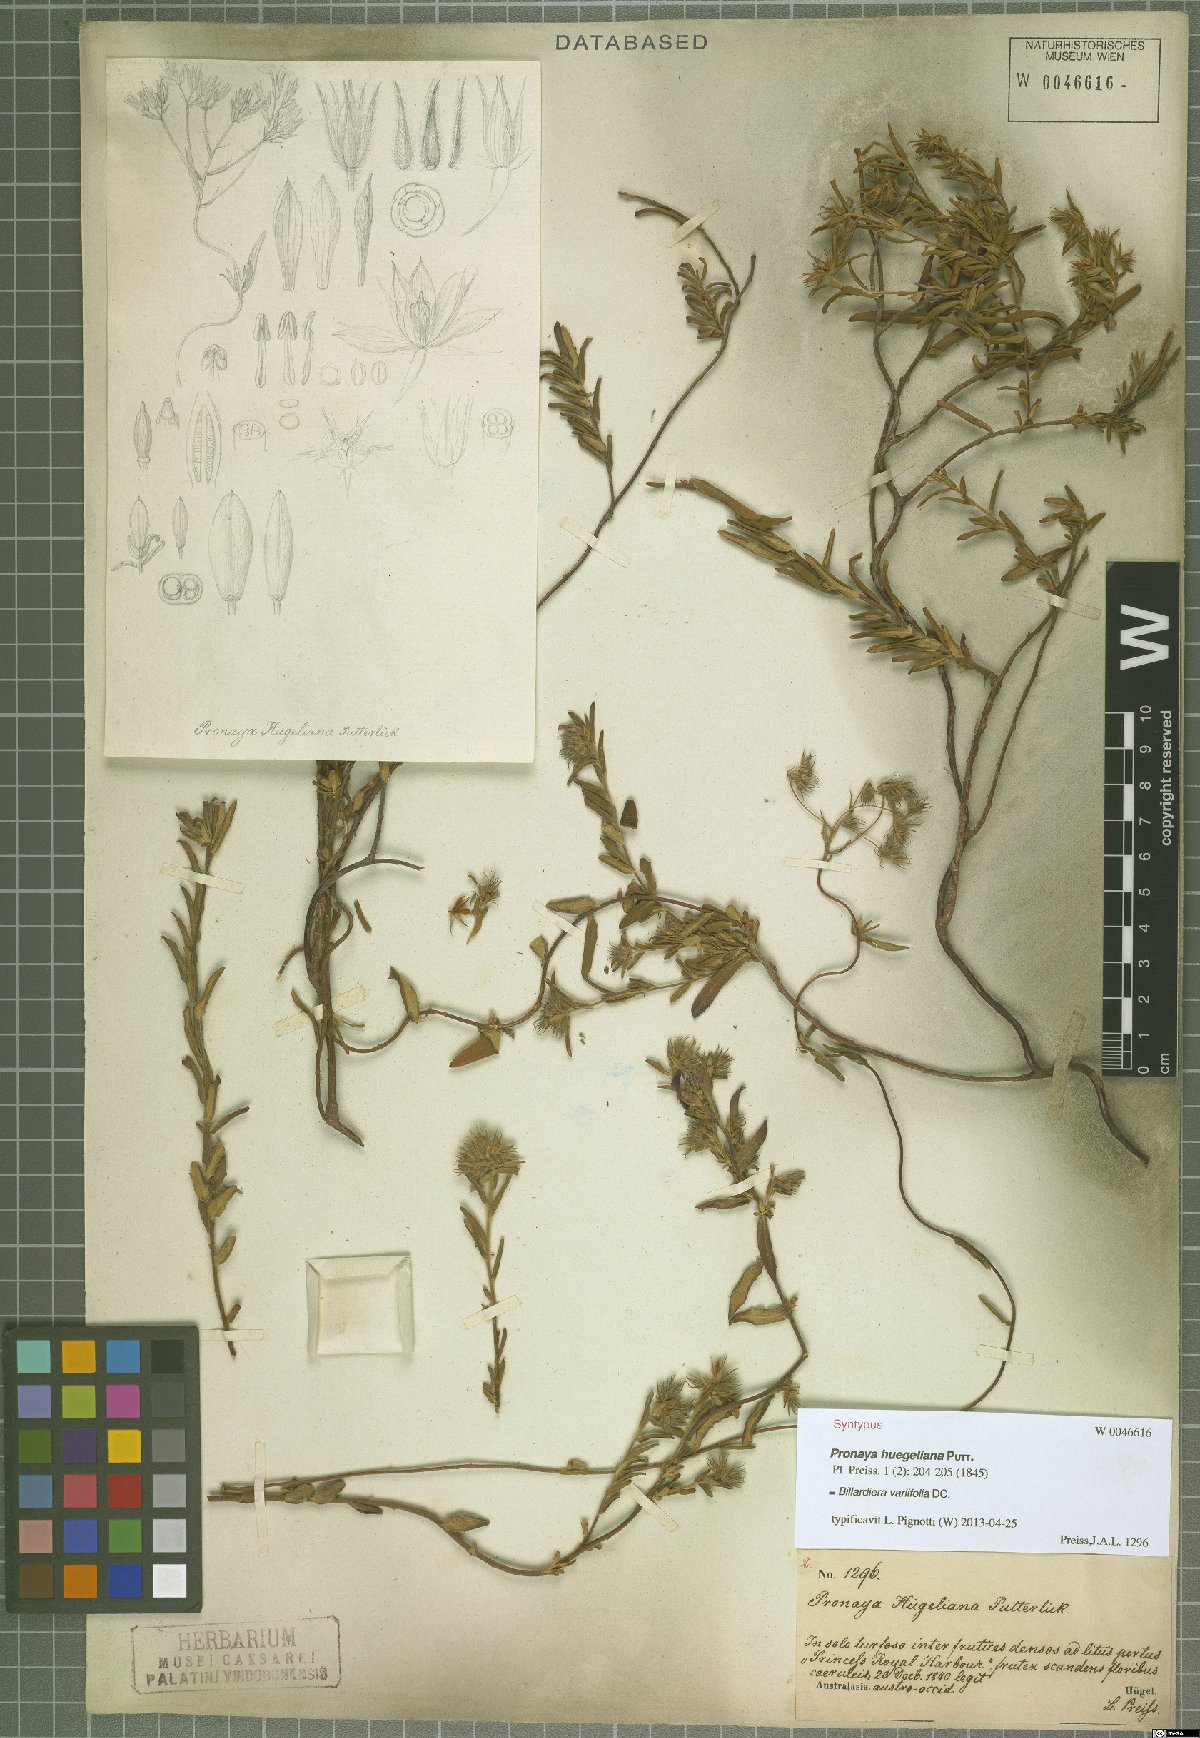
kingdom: Plantae
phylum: Tracheophyta
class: Magnoliopsida
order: Apiales
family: Pittosporaceae
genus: Billardiera
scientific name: Billardiera variifolia
